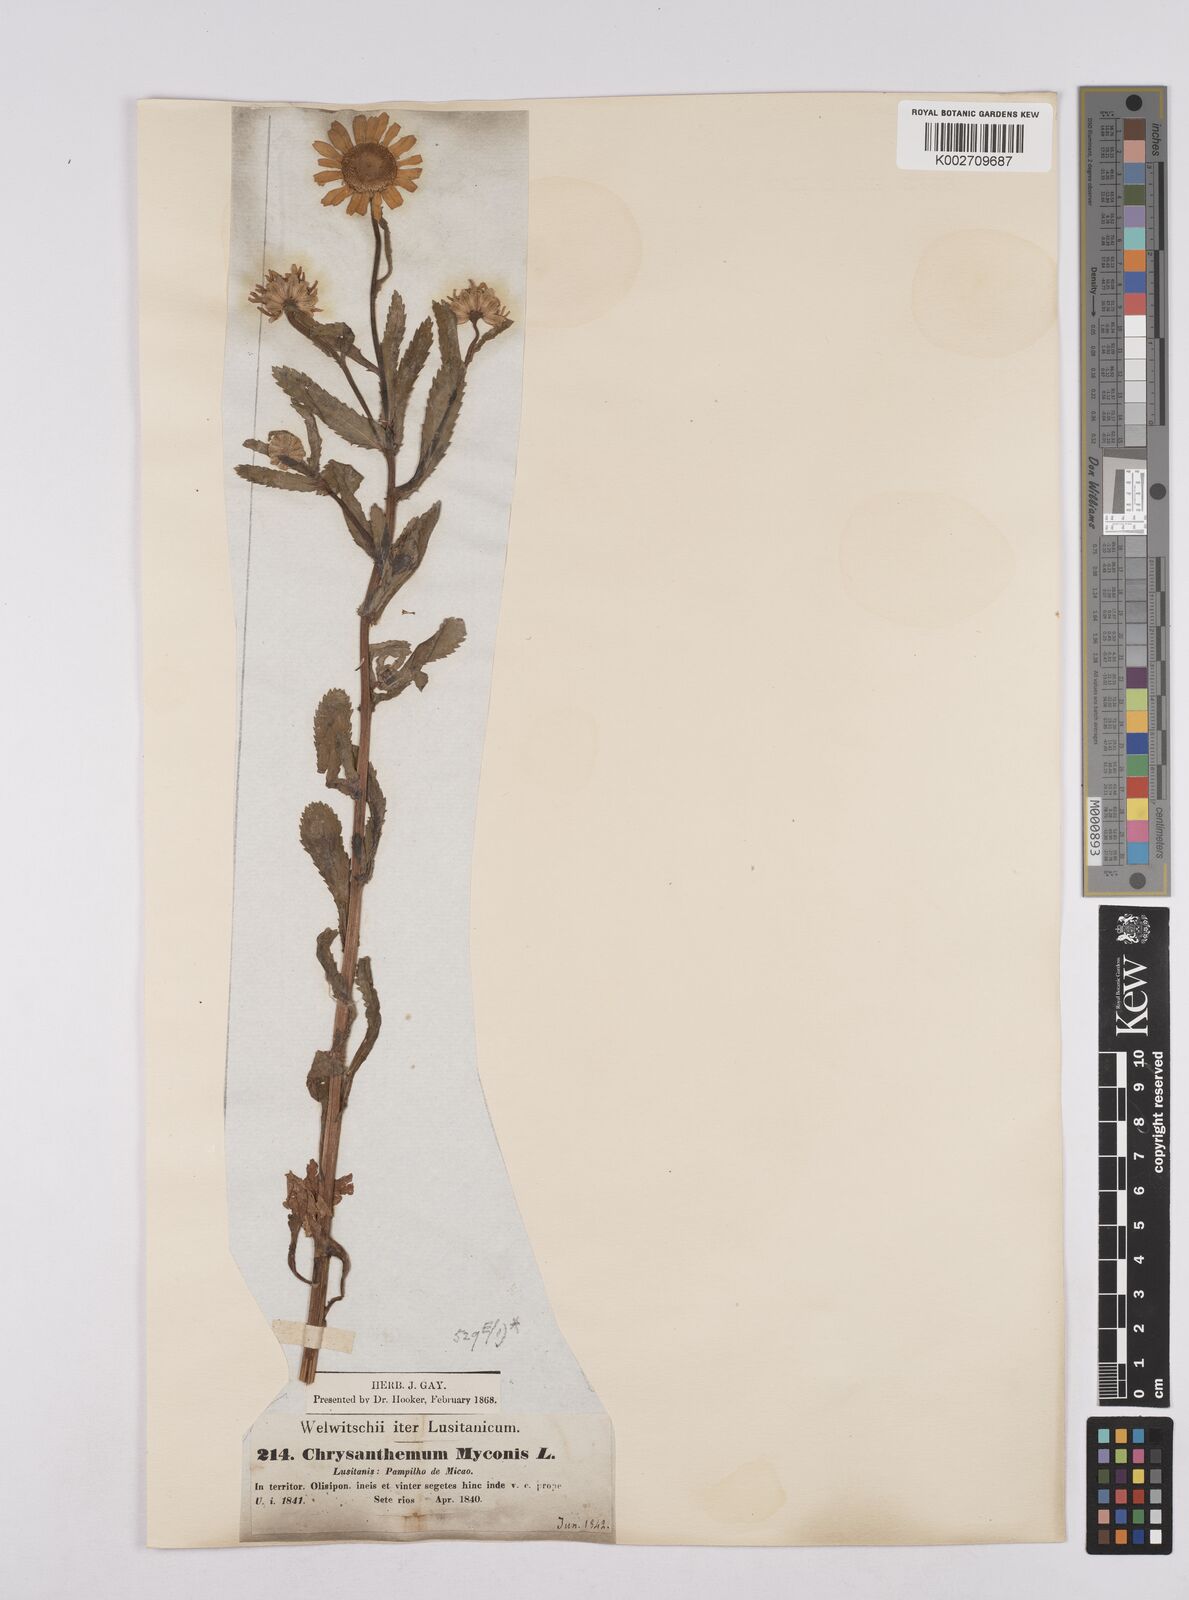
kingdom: Plantae
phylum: Tracheophyta
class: Magnoliopsida
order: Asterales
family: Asteraceae
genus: Coleostephus
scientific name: Coleostephus myconis
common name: Mediterranean marigold
